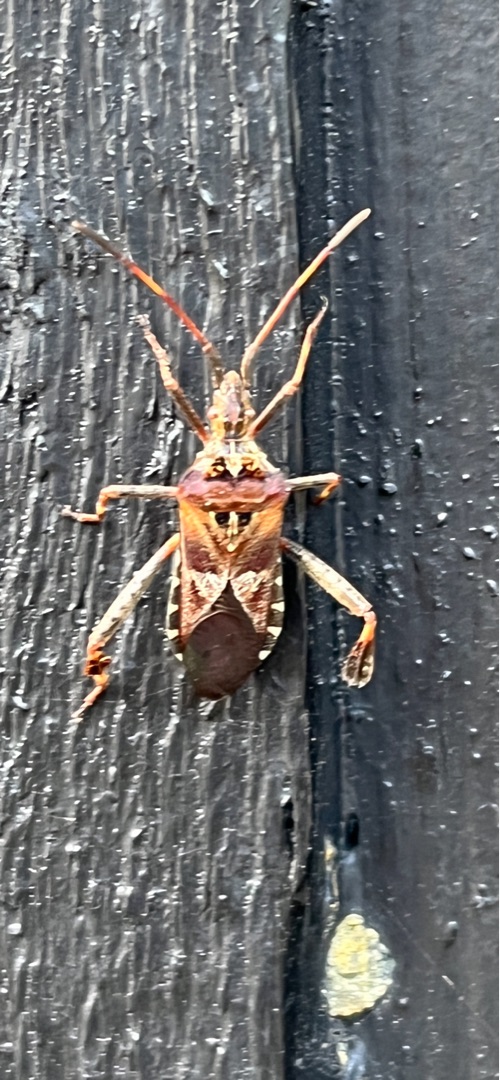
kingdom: Animalia
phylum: Arthropoda
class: Insecta
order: Hemiptera
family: Coreidae
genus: Leptoglossus
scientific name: Leptoglossus occidentalis
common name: Amerikansk fyrretæge
